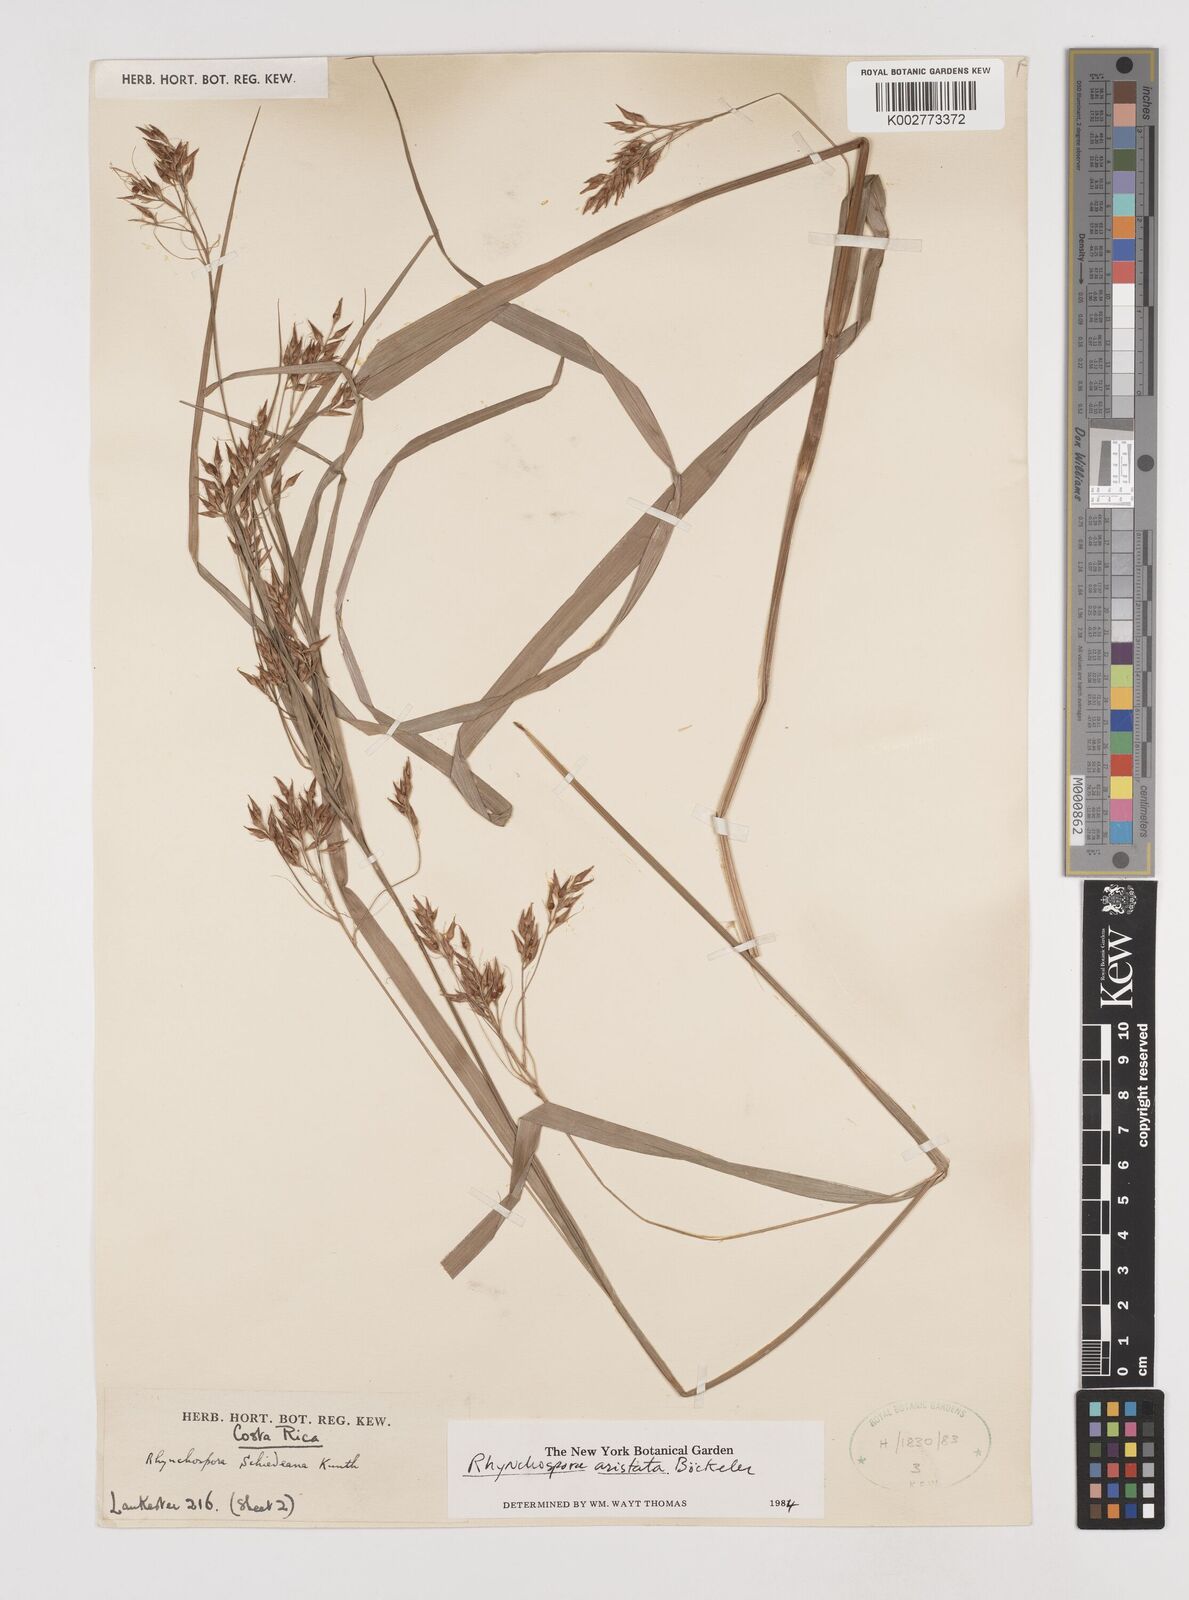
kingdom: Plantae
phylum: Tracheophyta
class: Liliopsida
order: Poales
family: Cyperaceae
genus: Rhynchospora
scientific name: Rhynchospora aristata
